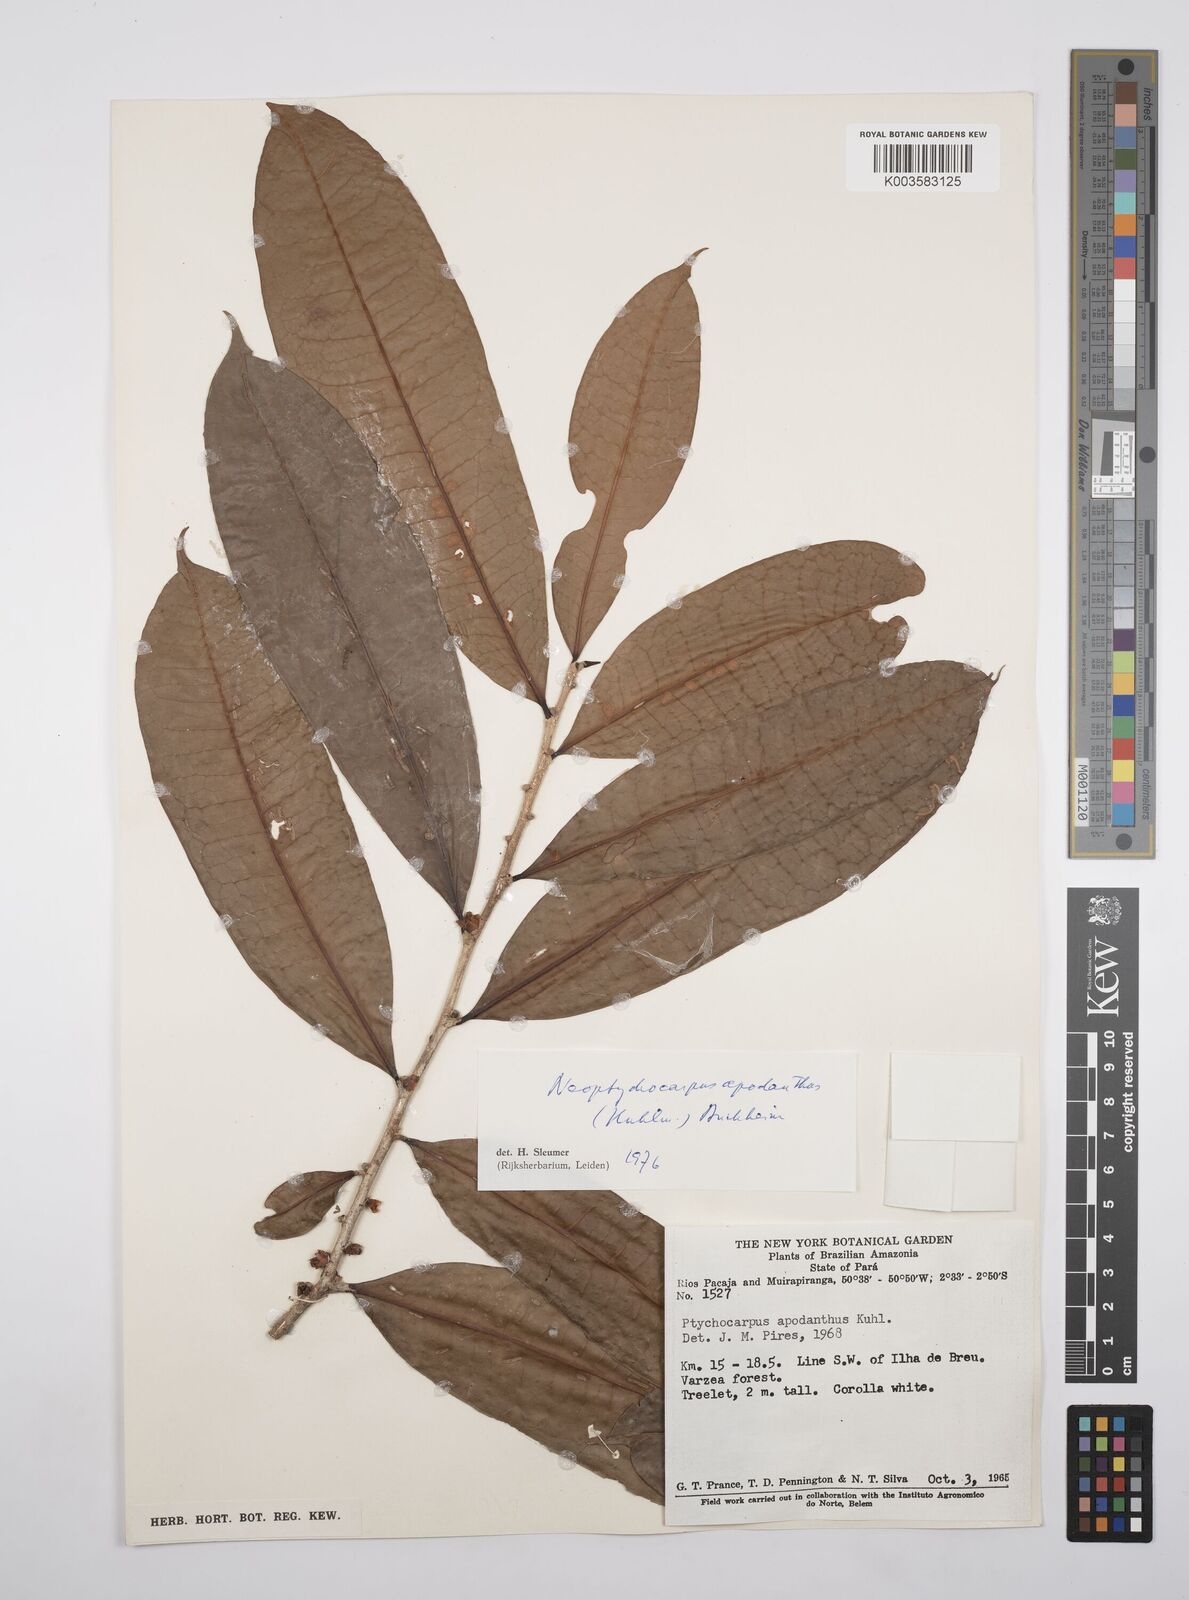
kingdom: Plantae
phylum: Tracheophyta
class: Magnoliopsida
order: Malpighiales
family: Salicaceae
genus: Casearia
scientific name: Casearia apodantha
